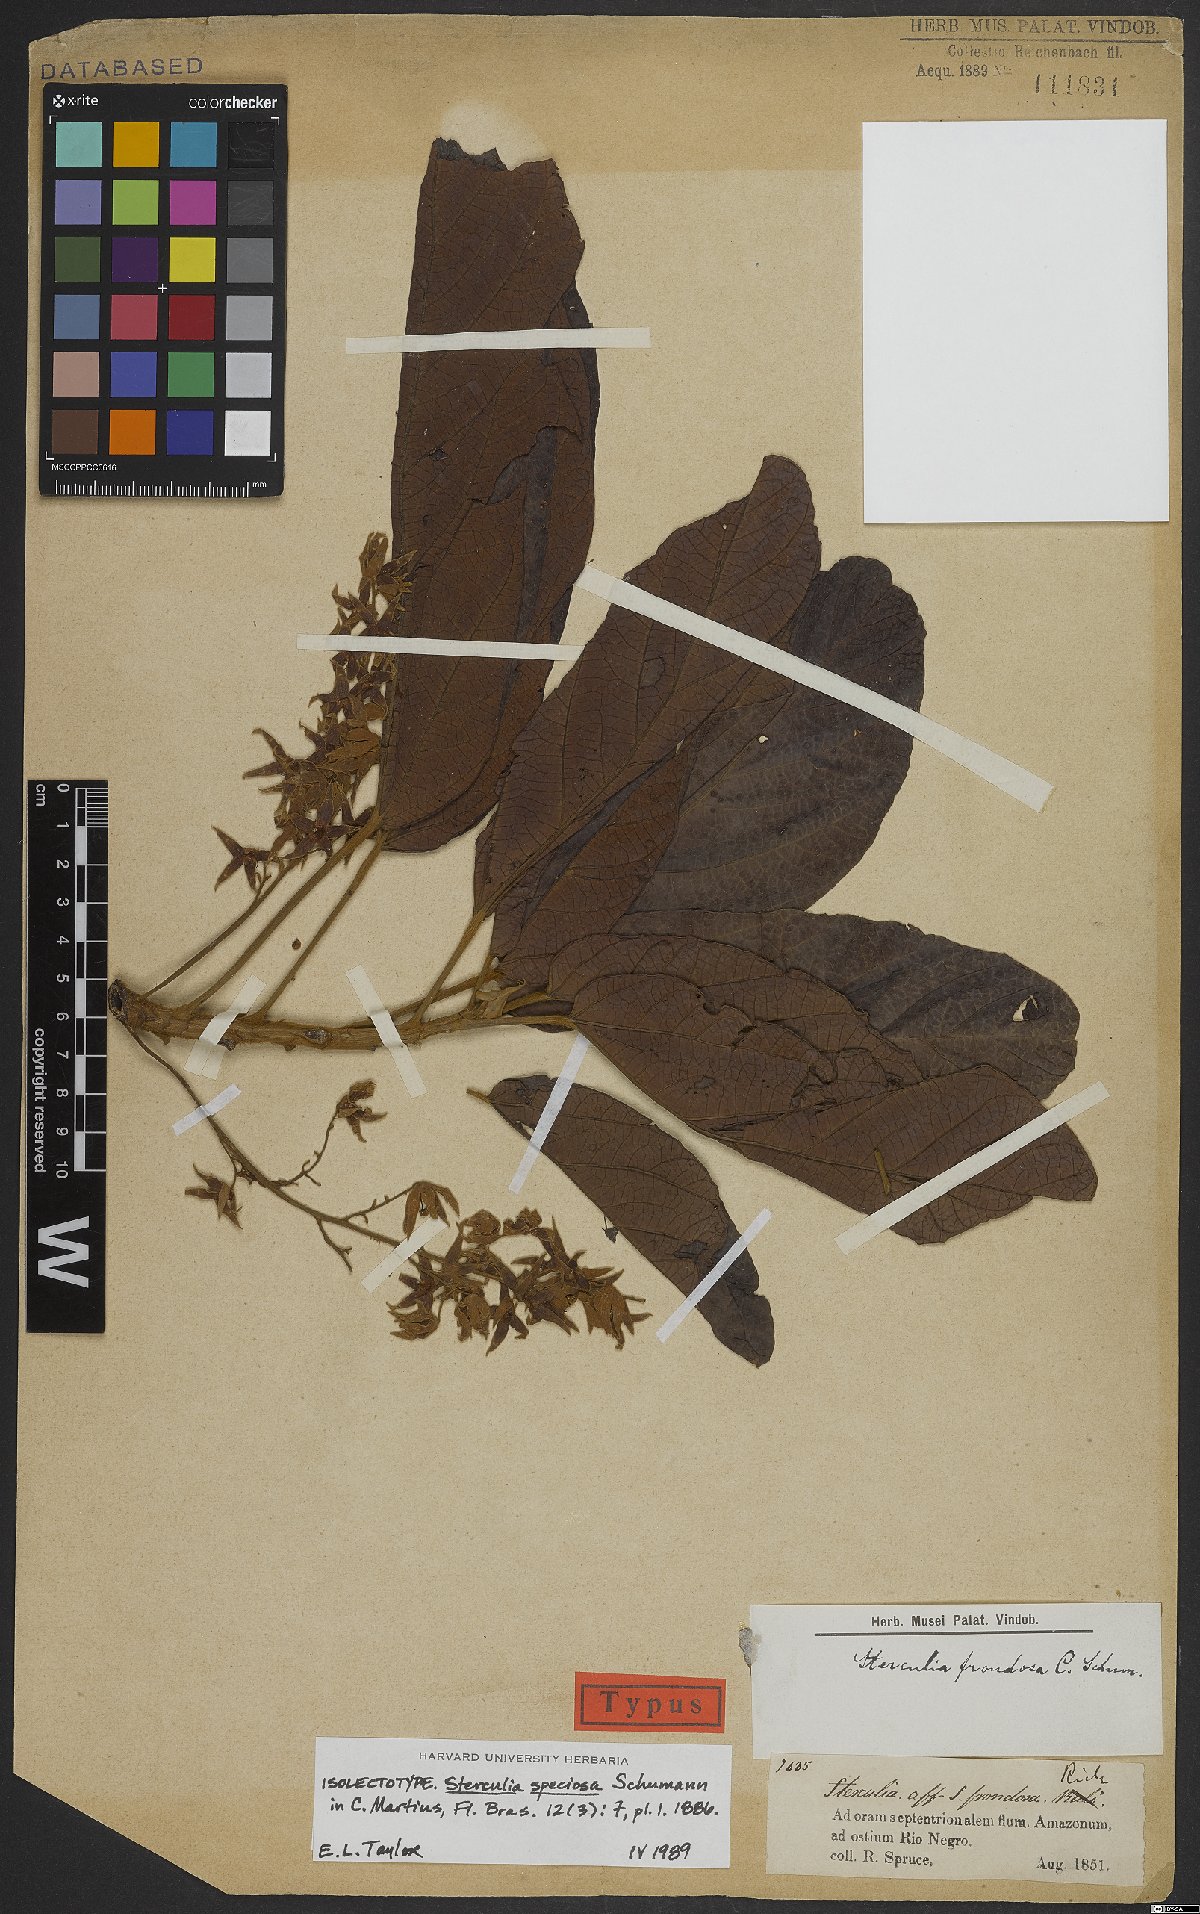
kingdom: Plantae
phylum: Tracheophyta
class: Magnoliopsida
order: Malvales
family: Malvaceae
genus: Sterculia
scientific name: Sterculia speciosa
